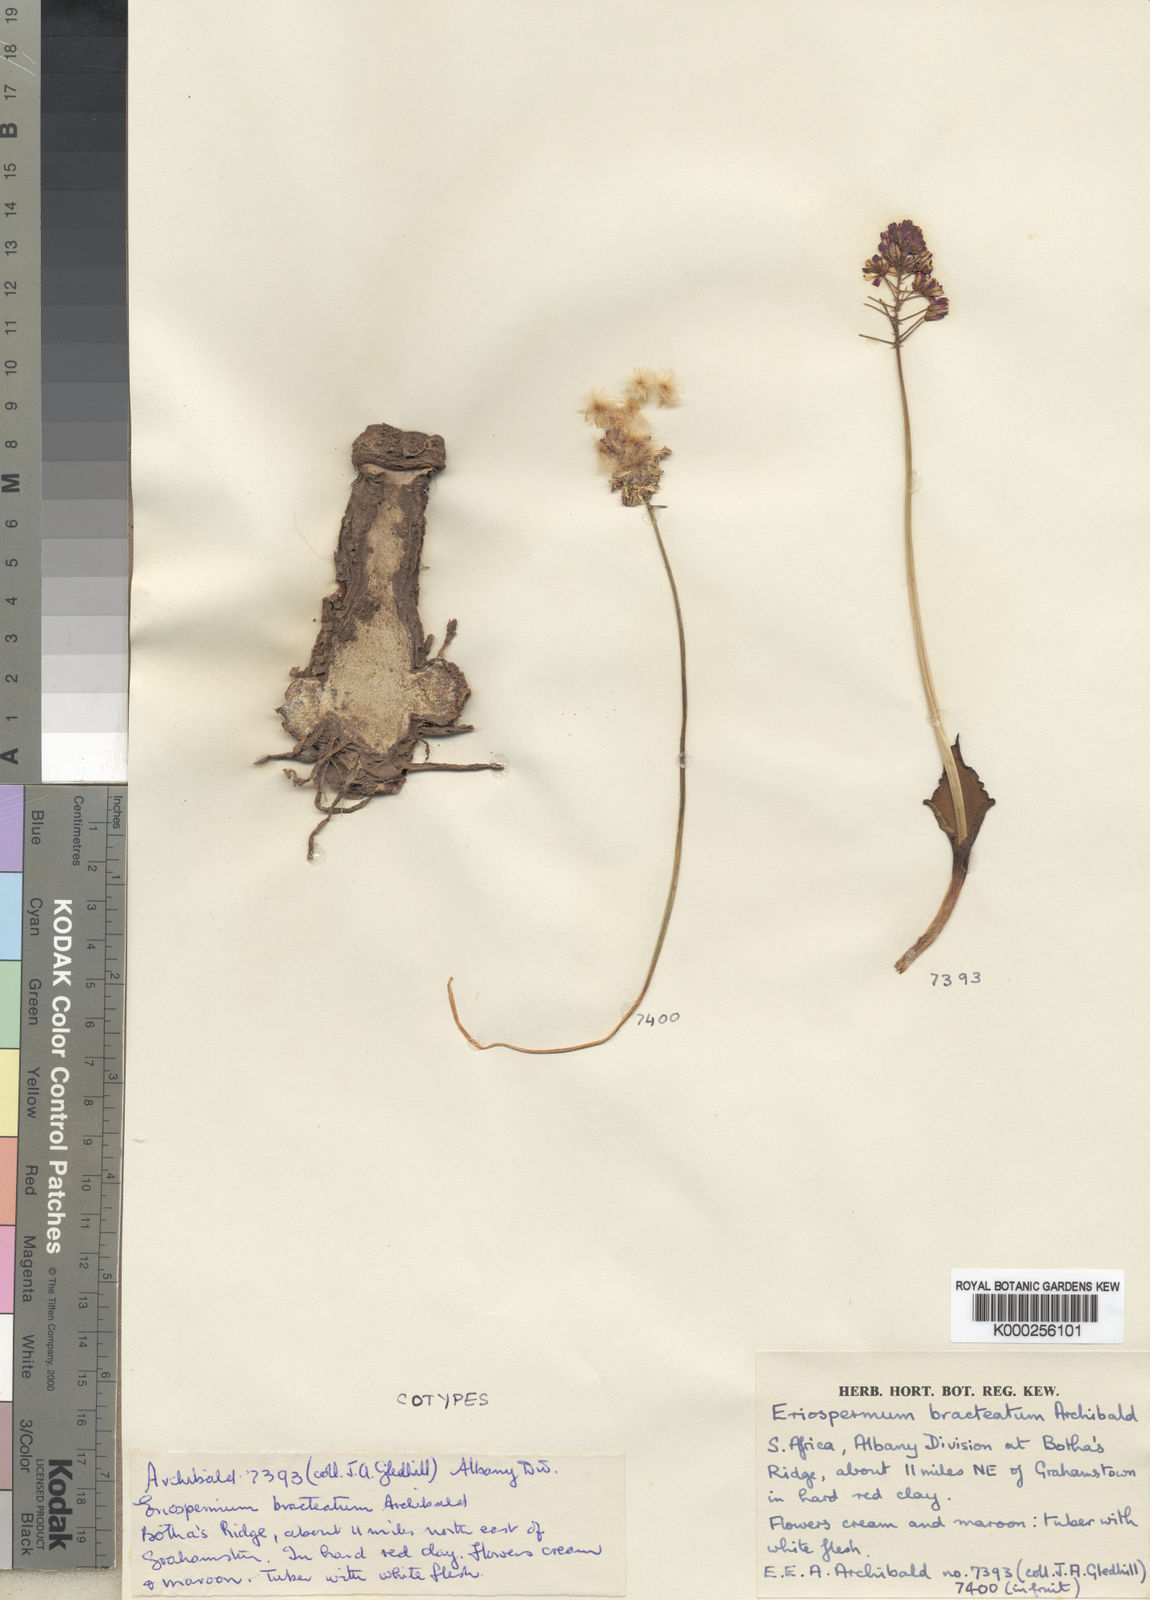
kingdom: Plantae
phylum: Tracheophyta
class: Liliopsida
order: Asparagales
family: Asparagaceae
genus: Eriospermum
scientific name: Eriospermum bracteatum
